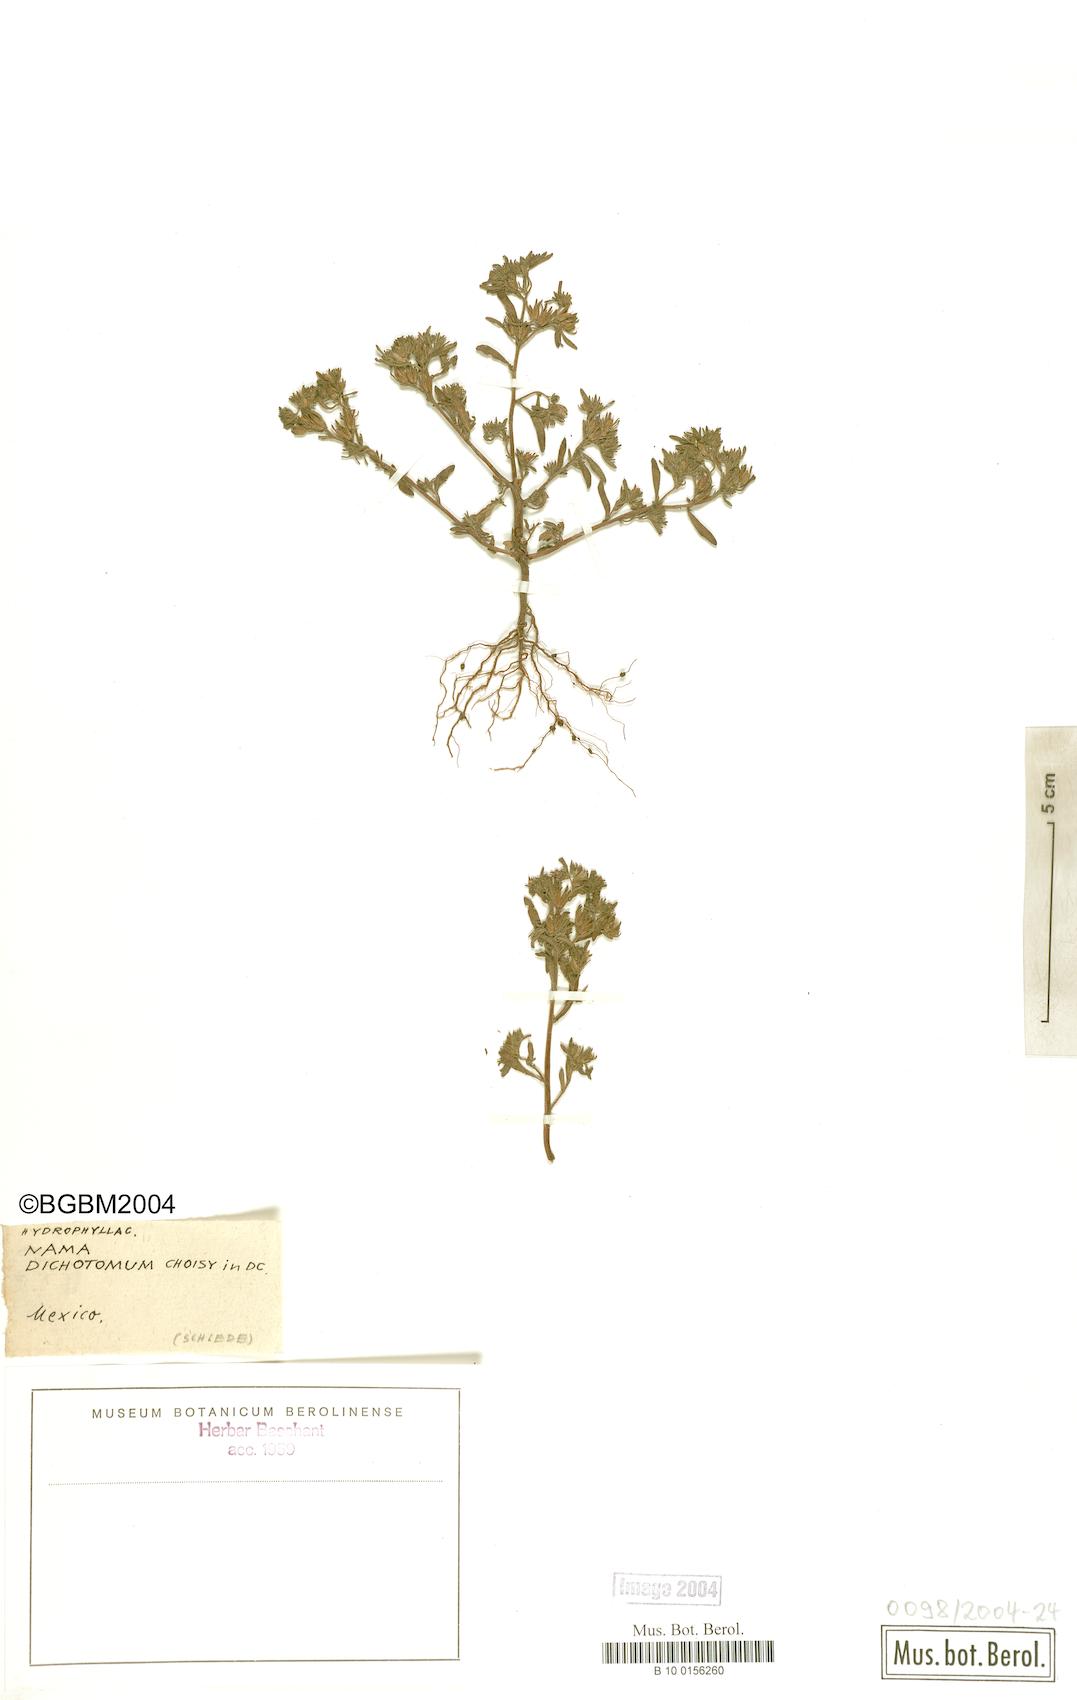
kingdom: Plantae
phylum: Tracheophyta
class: Magnoliopsida
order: Boraginales
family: Namaceae
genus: Nama
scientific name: Nama dichotoma
